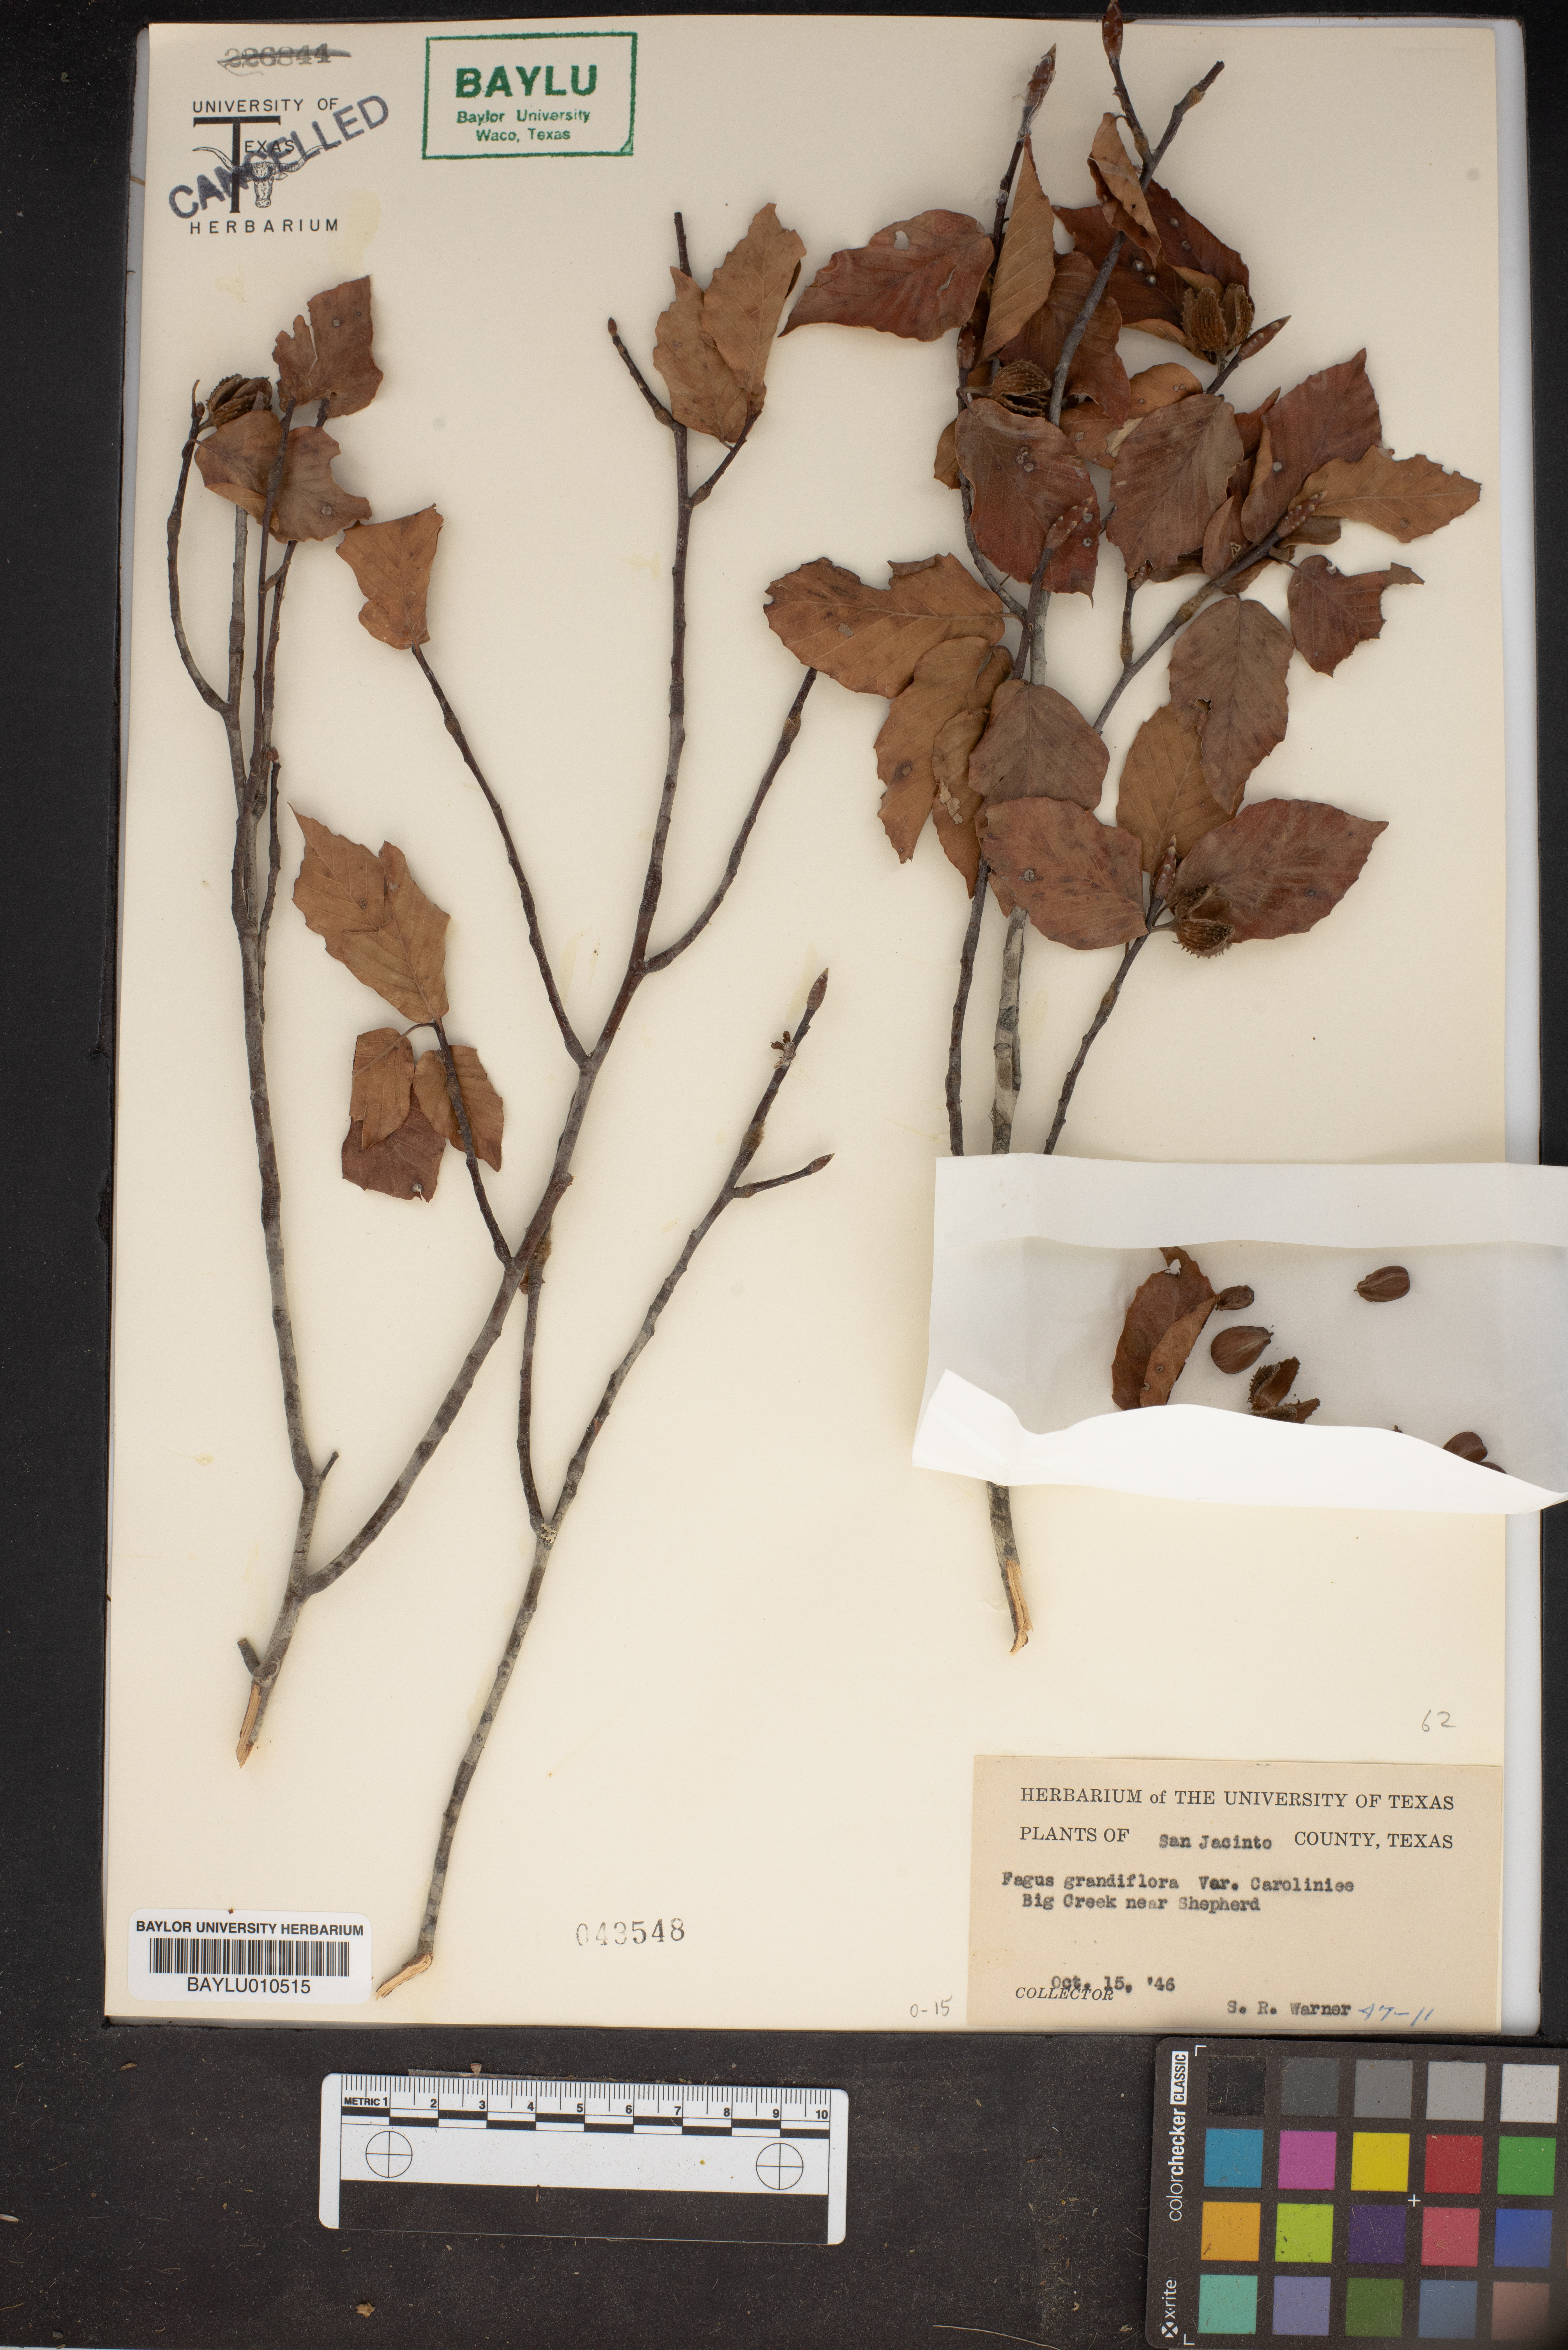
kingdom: Plantae
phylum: Tracheophyta
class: Magnoliopsida
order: Fagales
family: Fagaceae
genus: Fagus
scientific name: Fagus grandifolia
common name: American beech
